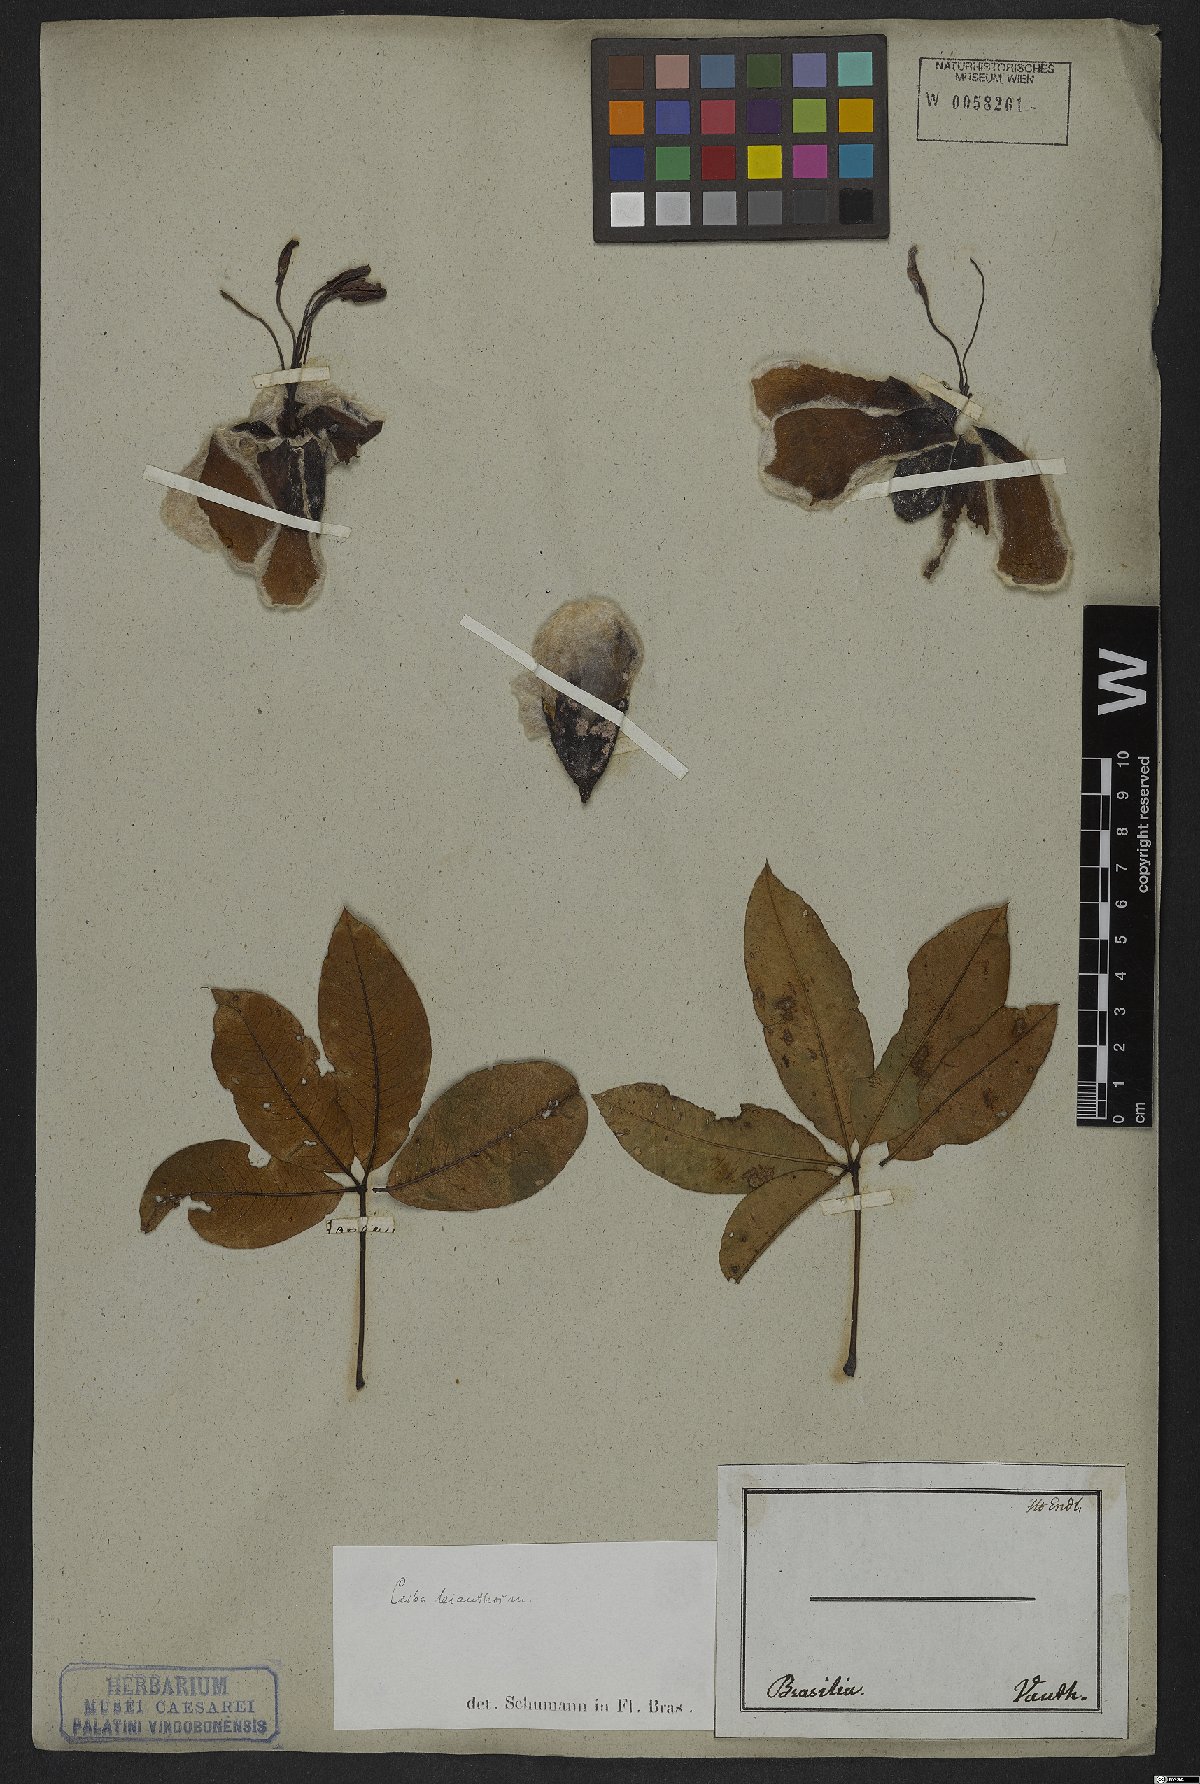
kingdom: Plantae
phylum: Tracheophyta
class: Magnoliopsida
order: Malvales
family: Malvaceae
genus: Ceiba
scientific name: Ceiba erianthos
